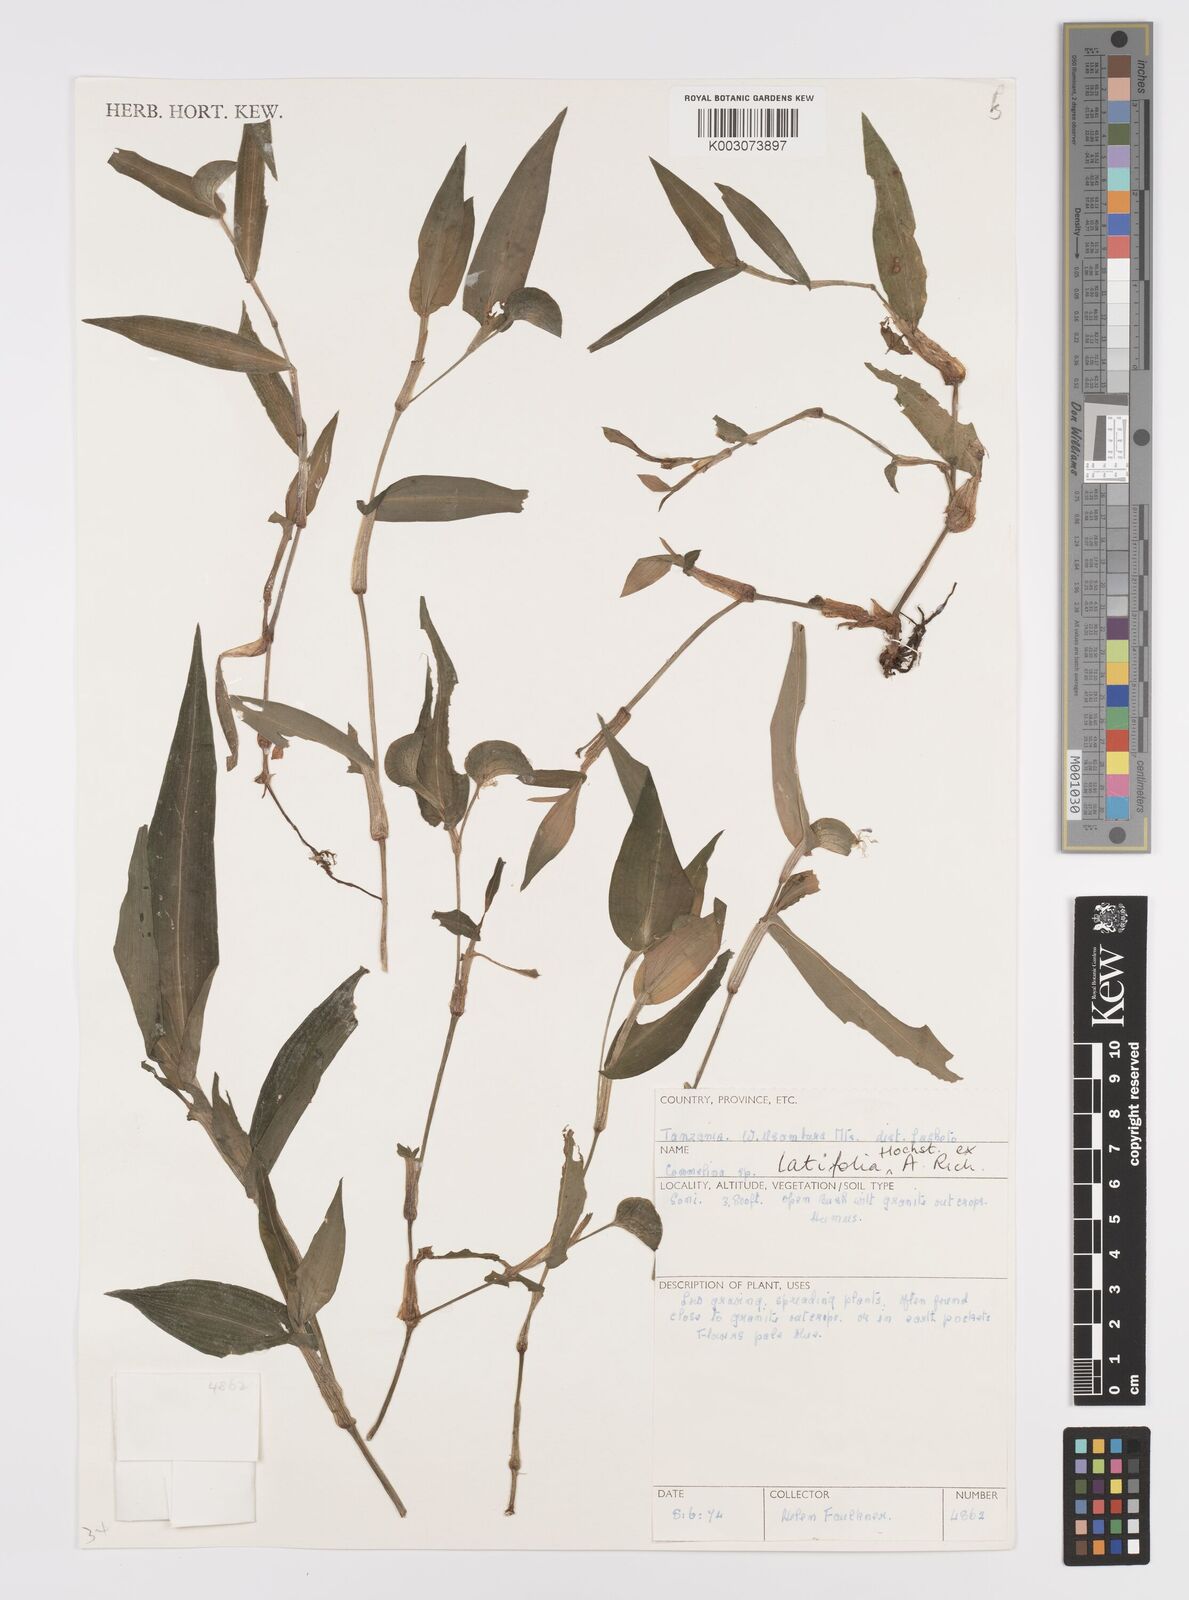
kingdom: Plantae
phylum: Tracheophyta
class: Liliopsida
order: Commelinales
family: Commelinaceae
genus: Commelina
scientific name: Commelina latifolia
